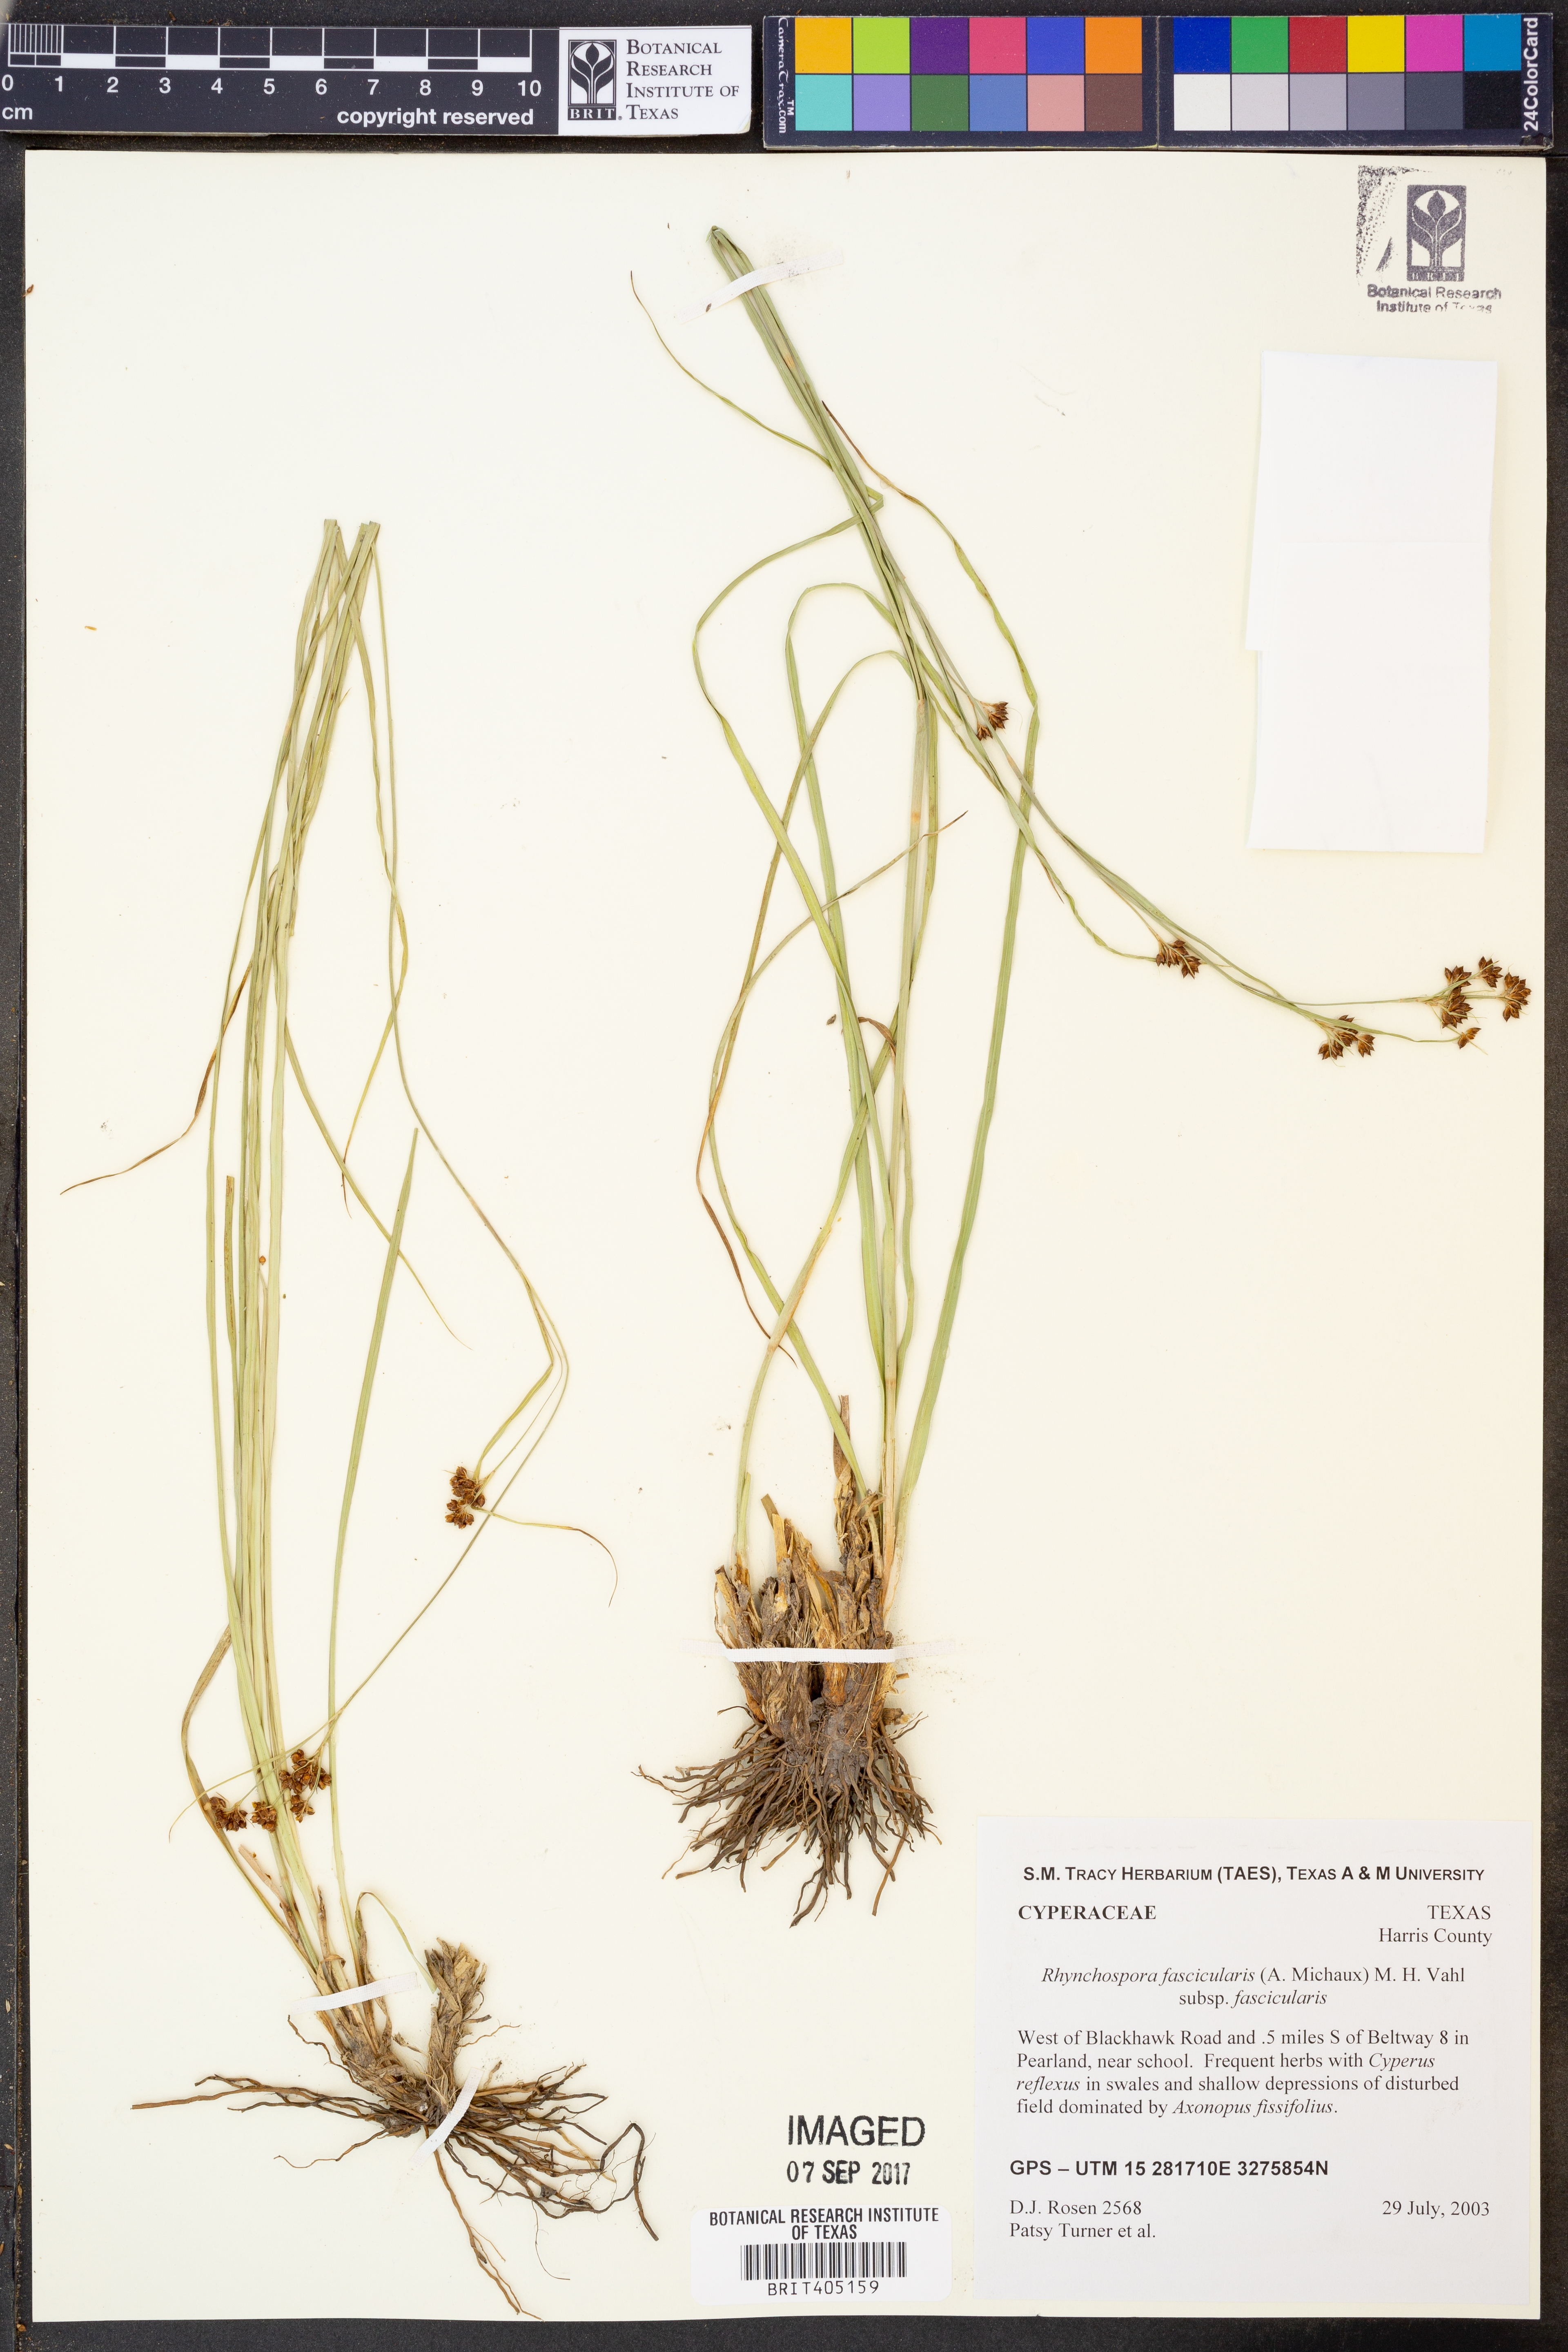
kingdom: Plantae
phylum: Tracheophyta
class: Liliopsida
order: Poales
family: Cyperaceae
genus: Rhynchospora
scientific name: Rhynchospora fascicularis
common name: Fascicled beak sedge
